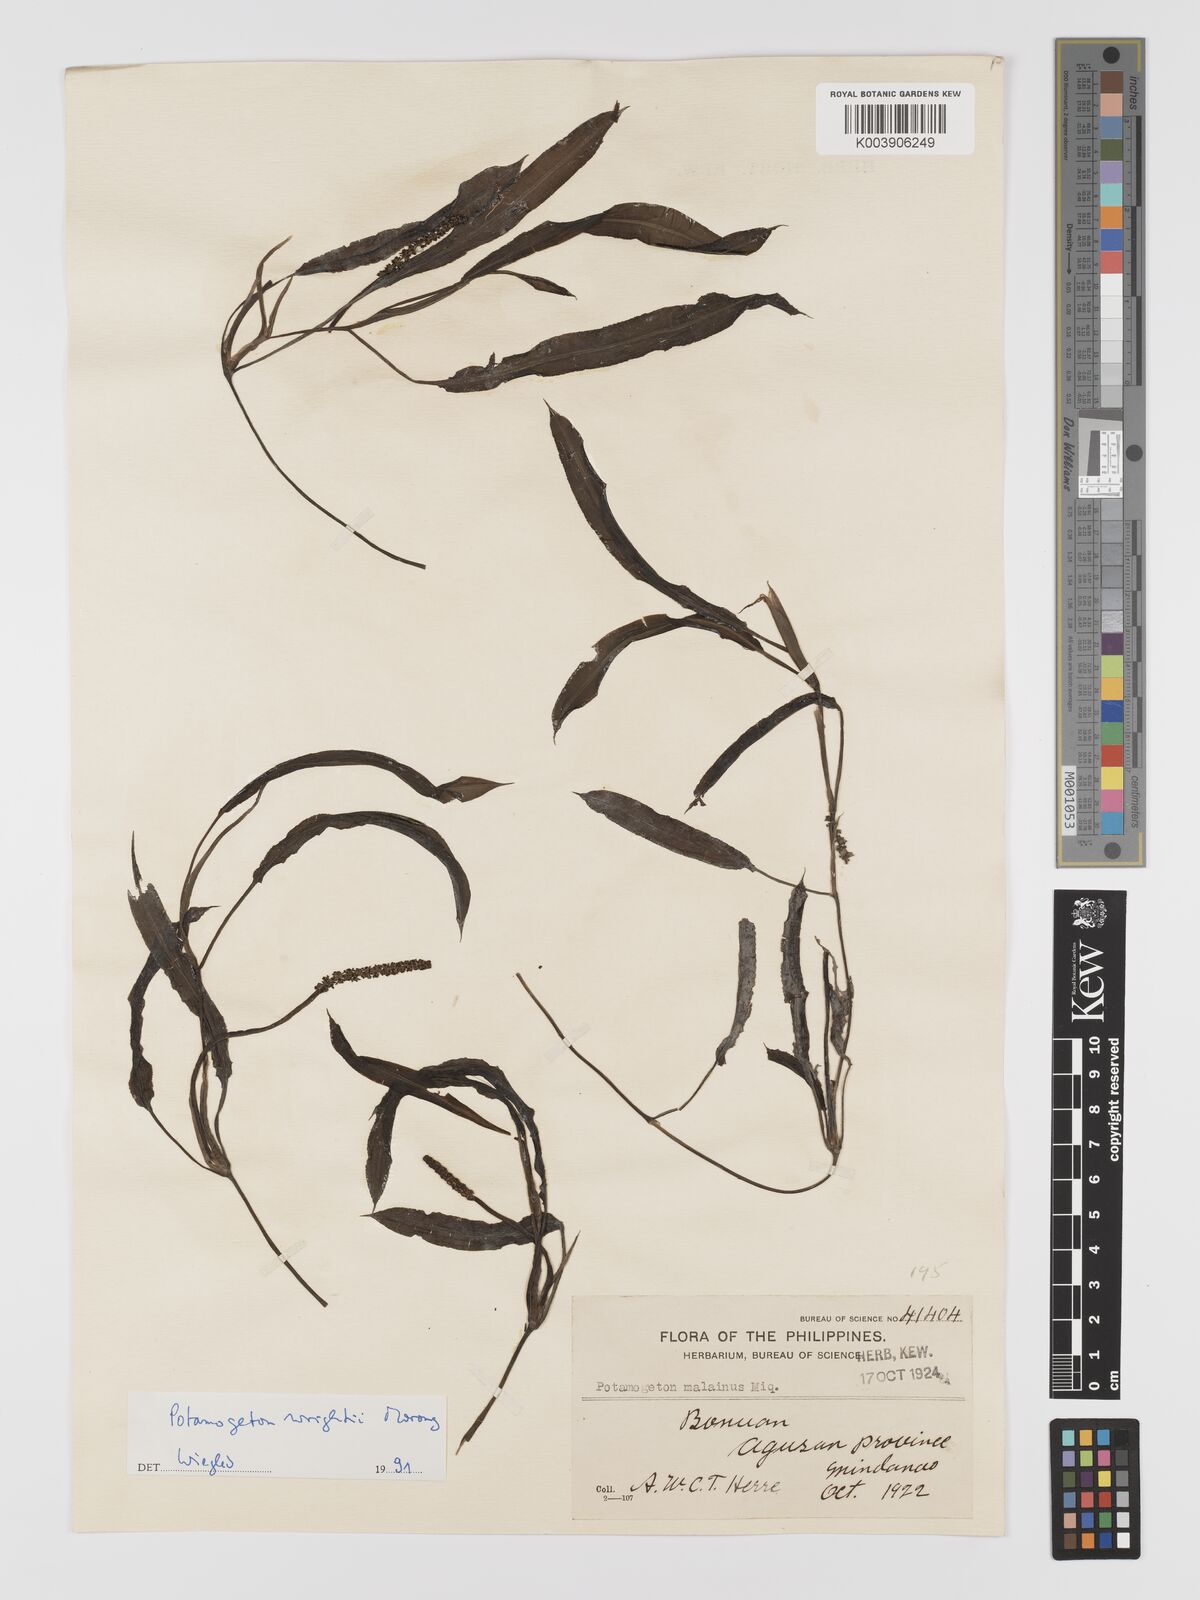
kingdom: Plantae
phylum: Tracheophyta
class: Liliopsida
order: Alismatales
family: Potamogetonaceae
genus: Potamogeton
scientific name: Potamogeton wrightii
